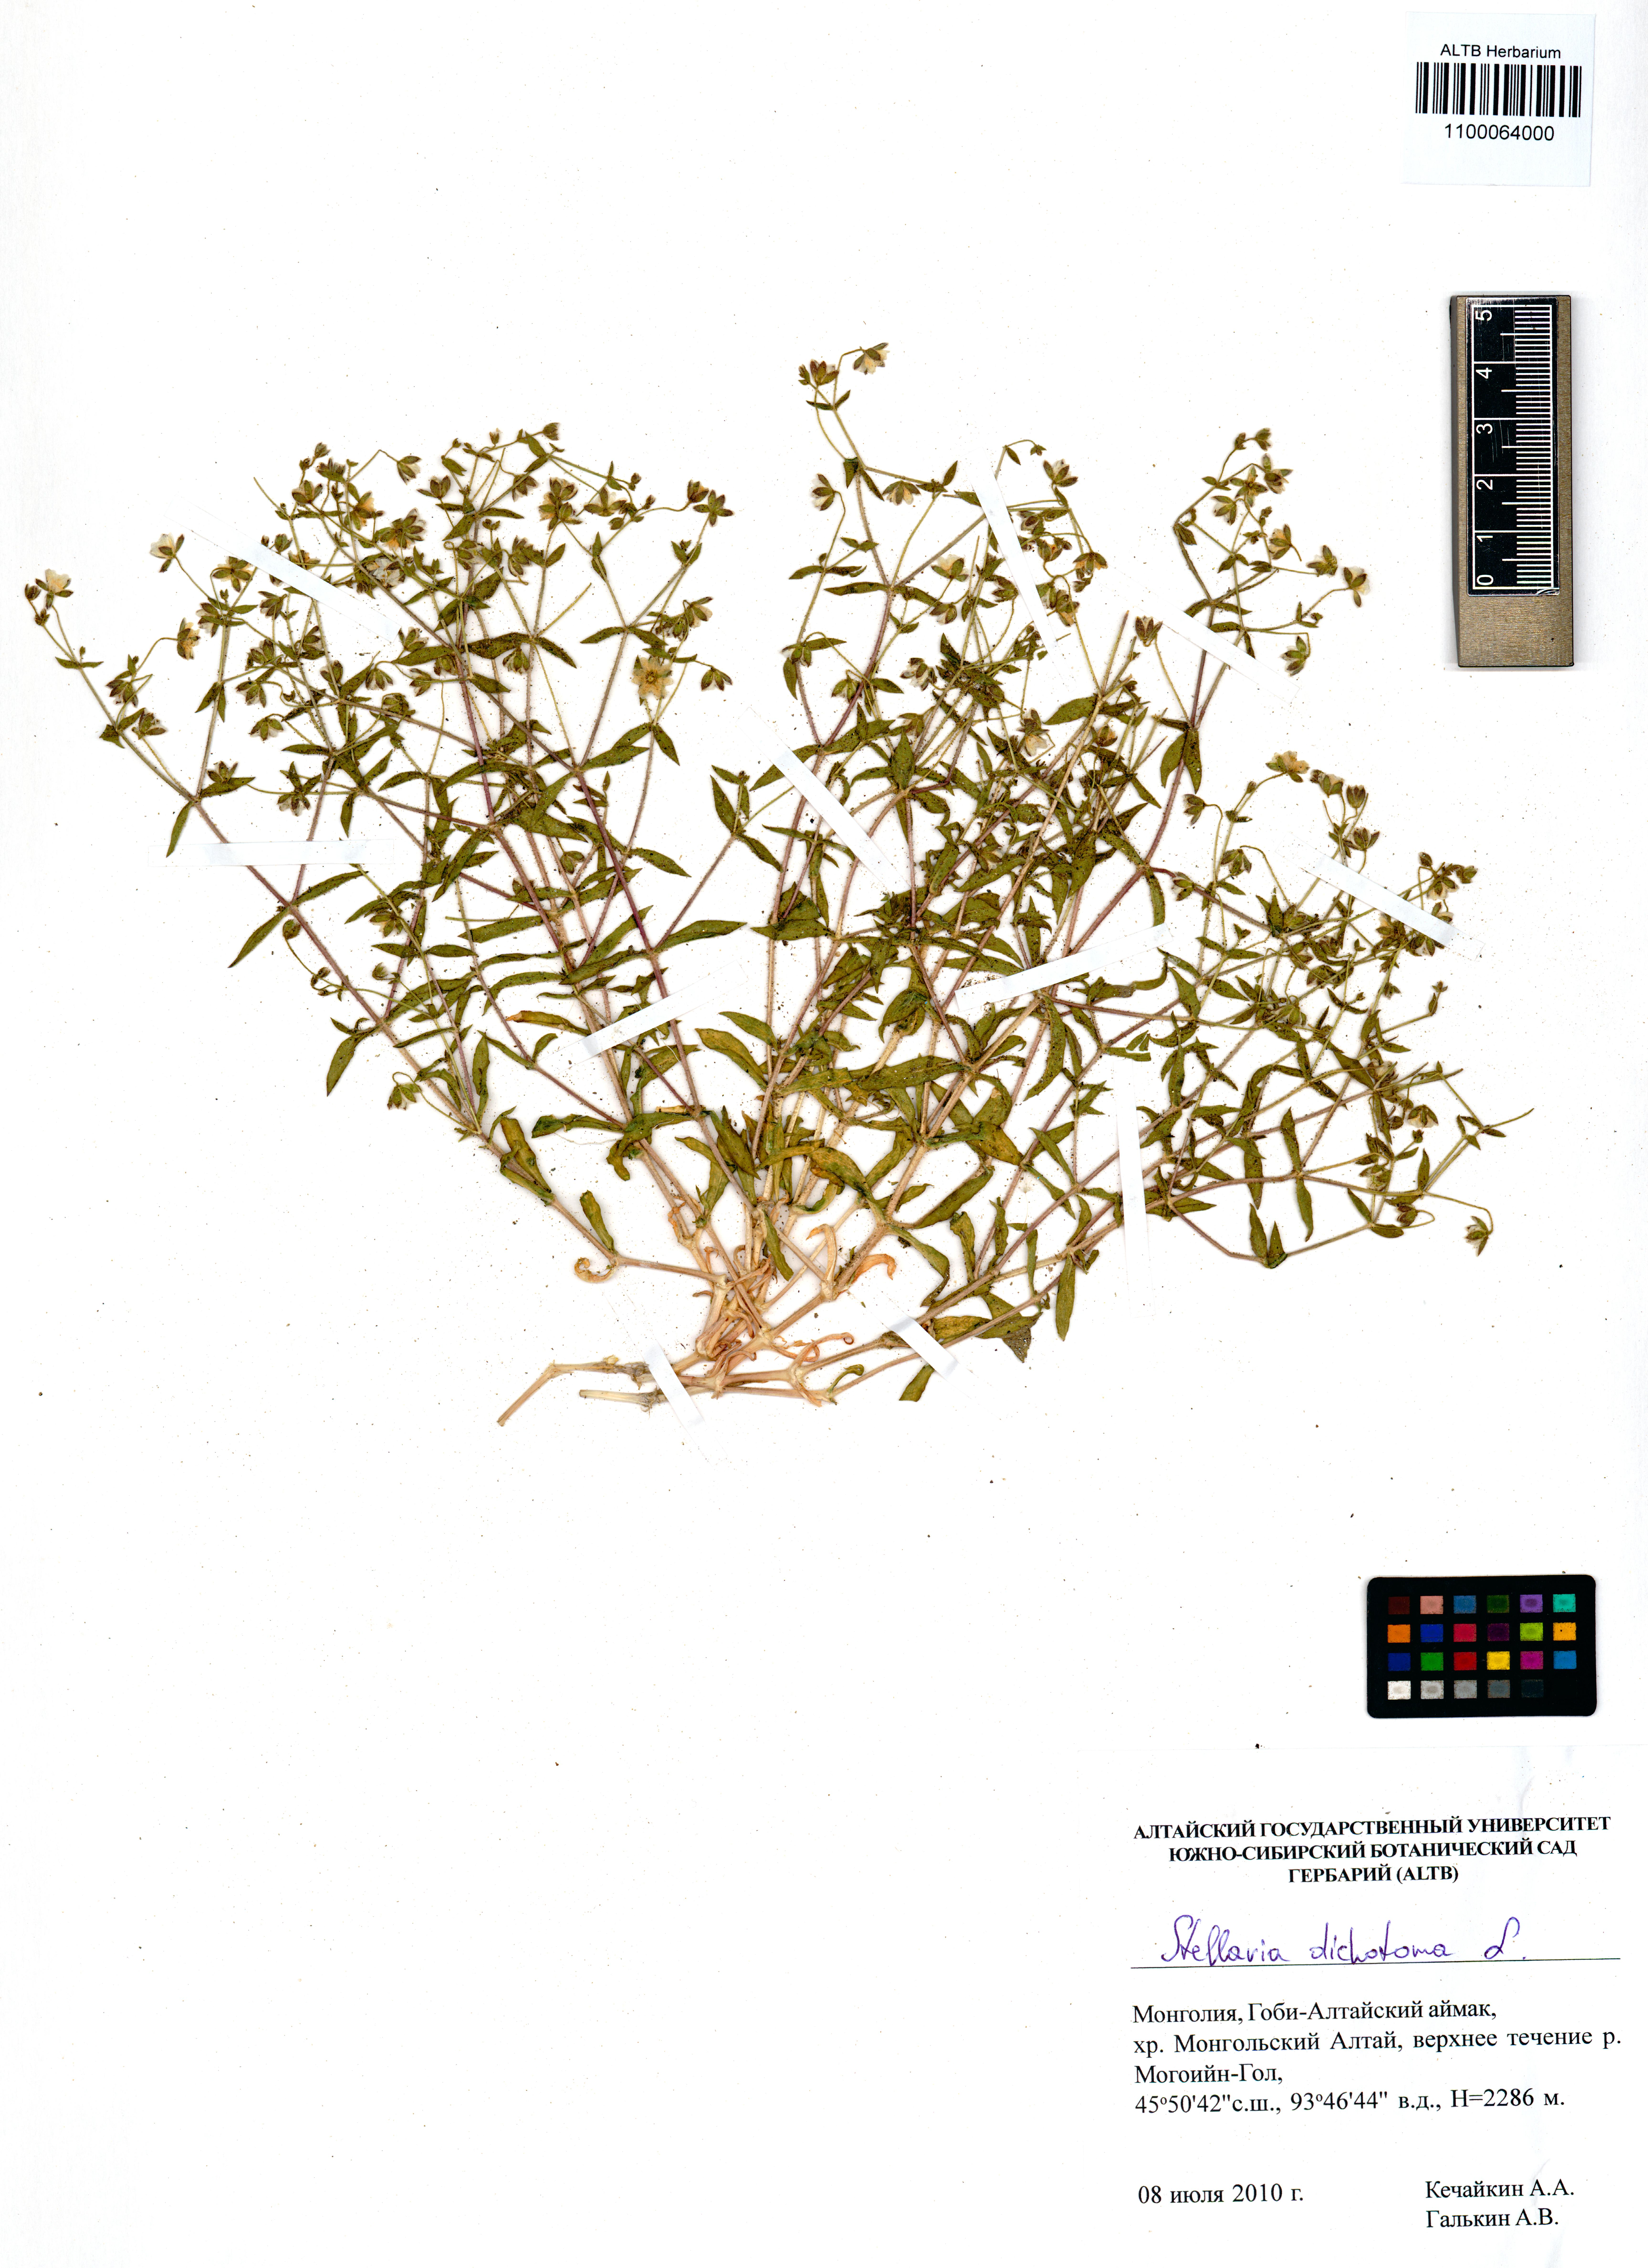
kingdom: Plantae
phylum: Tracheophyta
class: Magnoliopsida
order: Caryophyllales
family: Caryophyllaceae
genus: Mesostemma
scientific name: Mesostemma dichotomum
